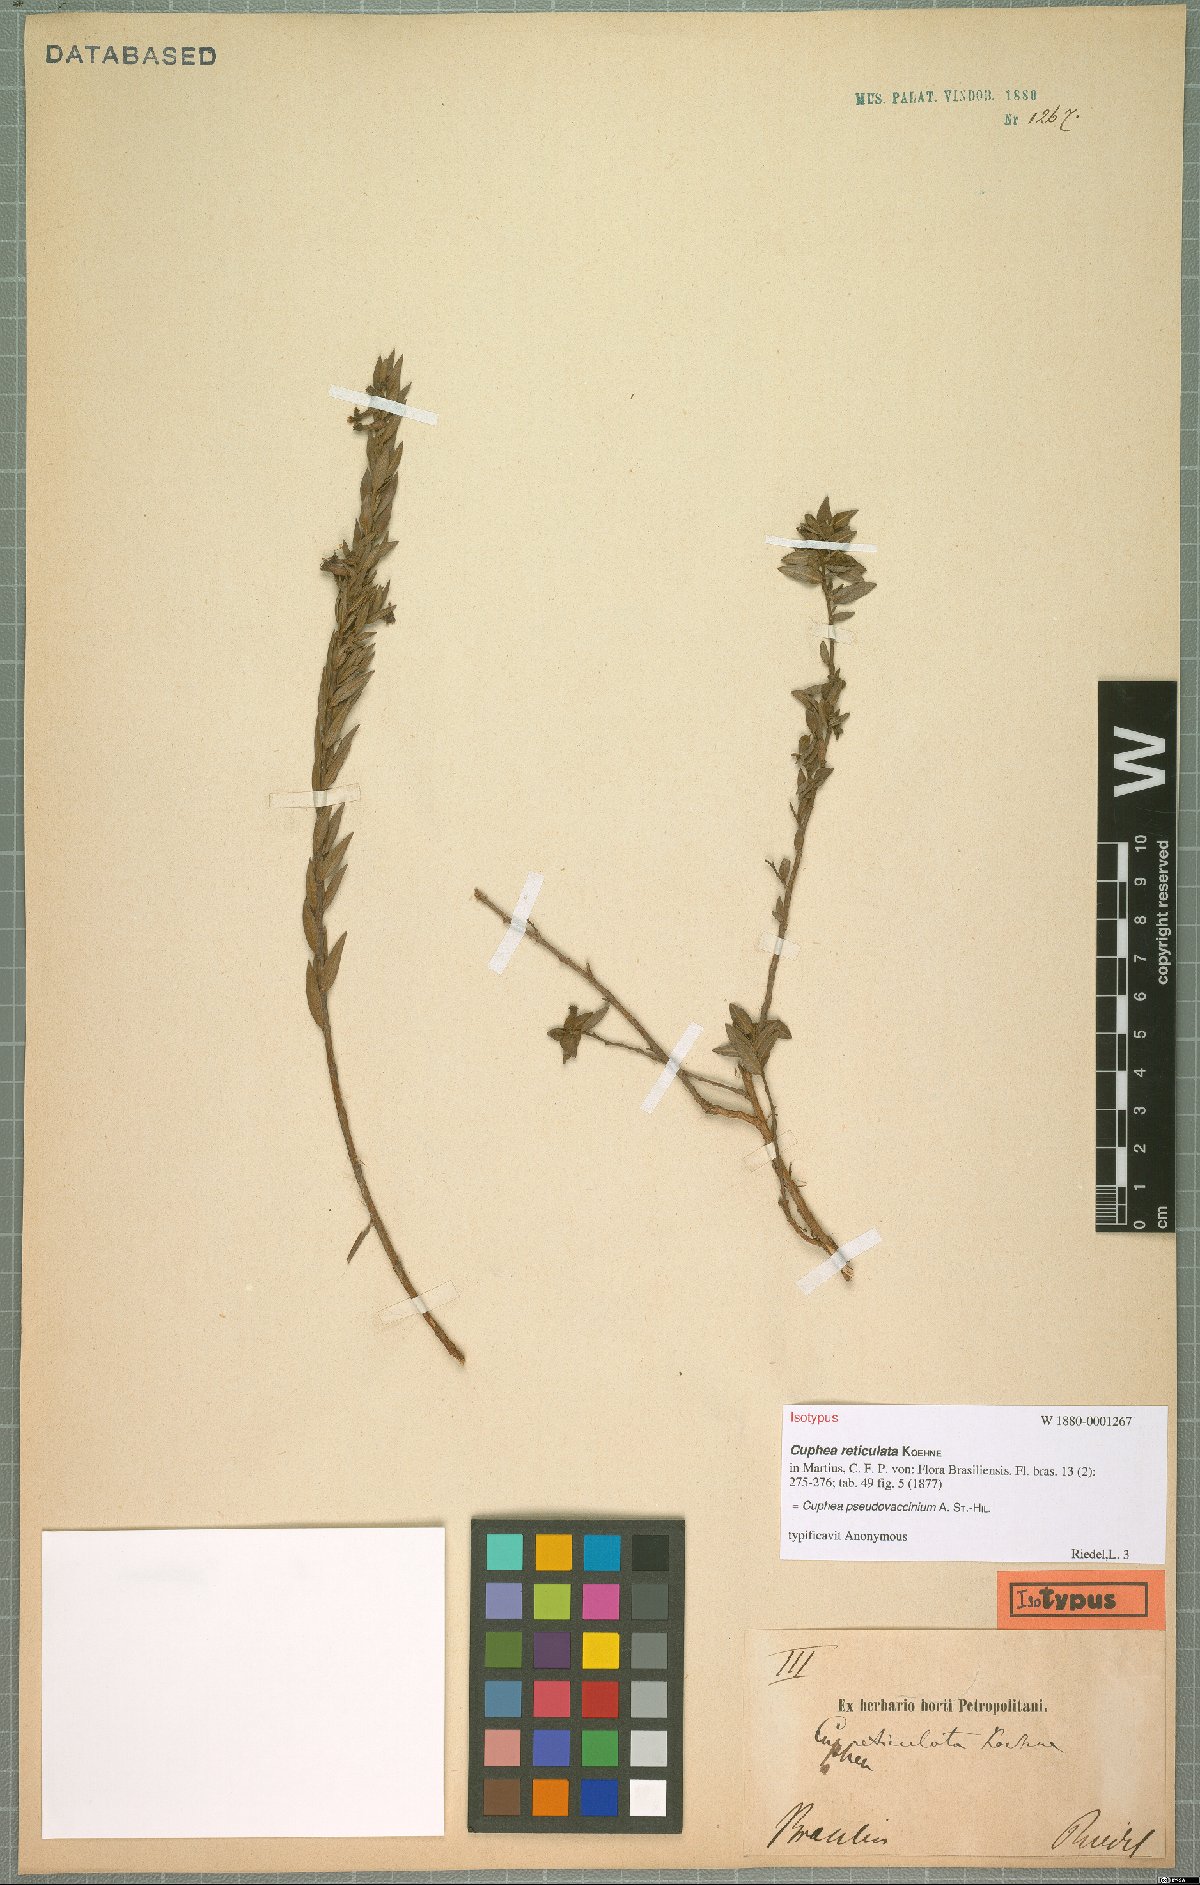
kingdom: Plantae
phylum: Tracheophyta
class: Magnoliopsida
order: Myrtales
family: Lythraceae
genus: Cuphea
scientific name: Cuphea pseudovaccinium
